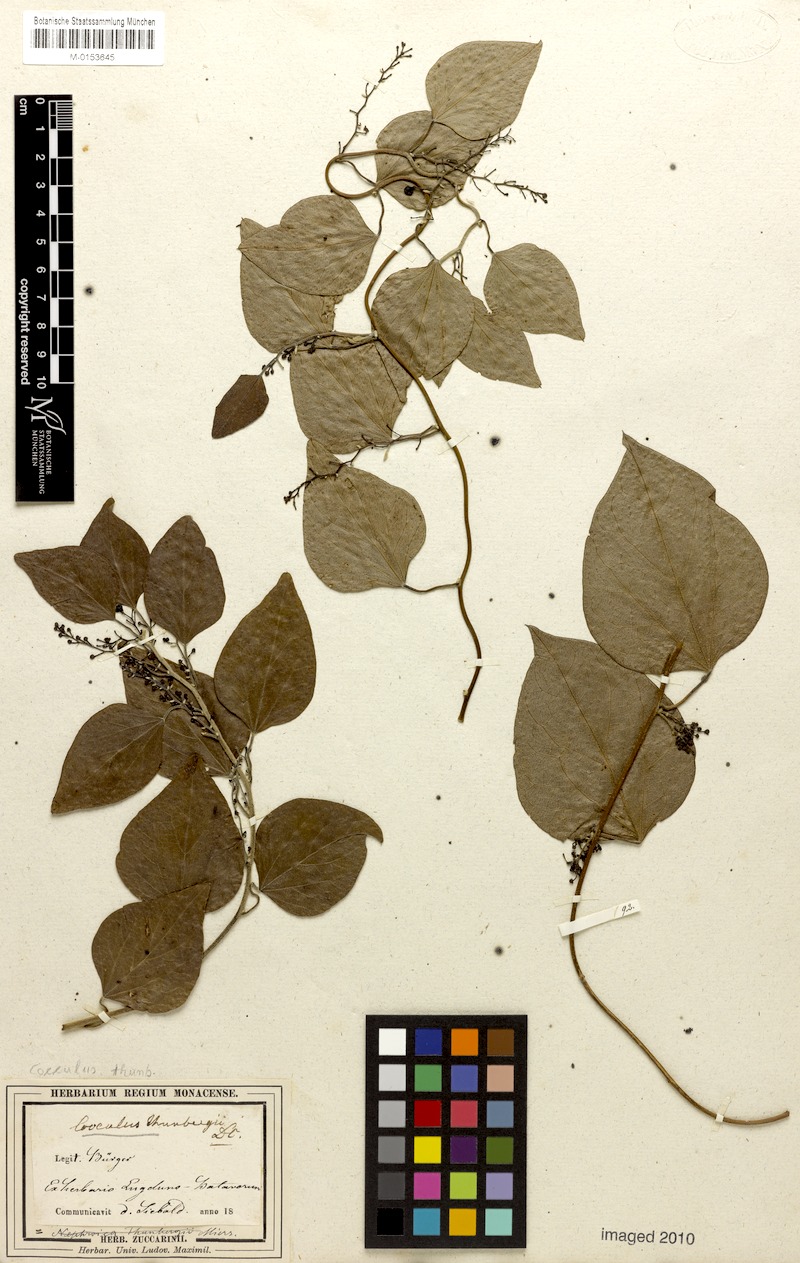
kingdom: Plantae
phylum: Tracheophyta
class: Magnoliopsida
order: Ranunculales
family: Menispermaceae
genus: Cocculus
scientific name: Cocculus orbiculatus
